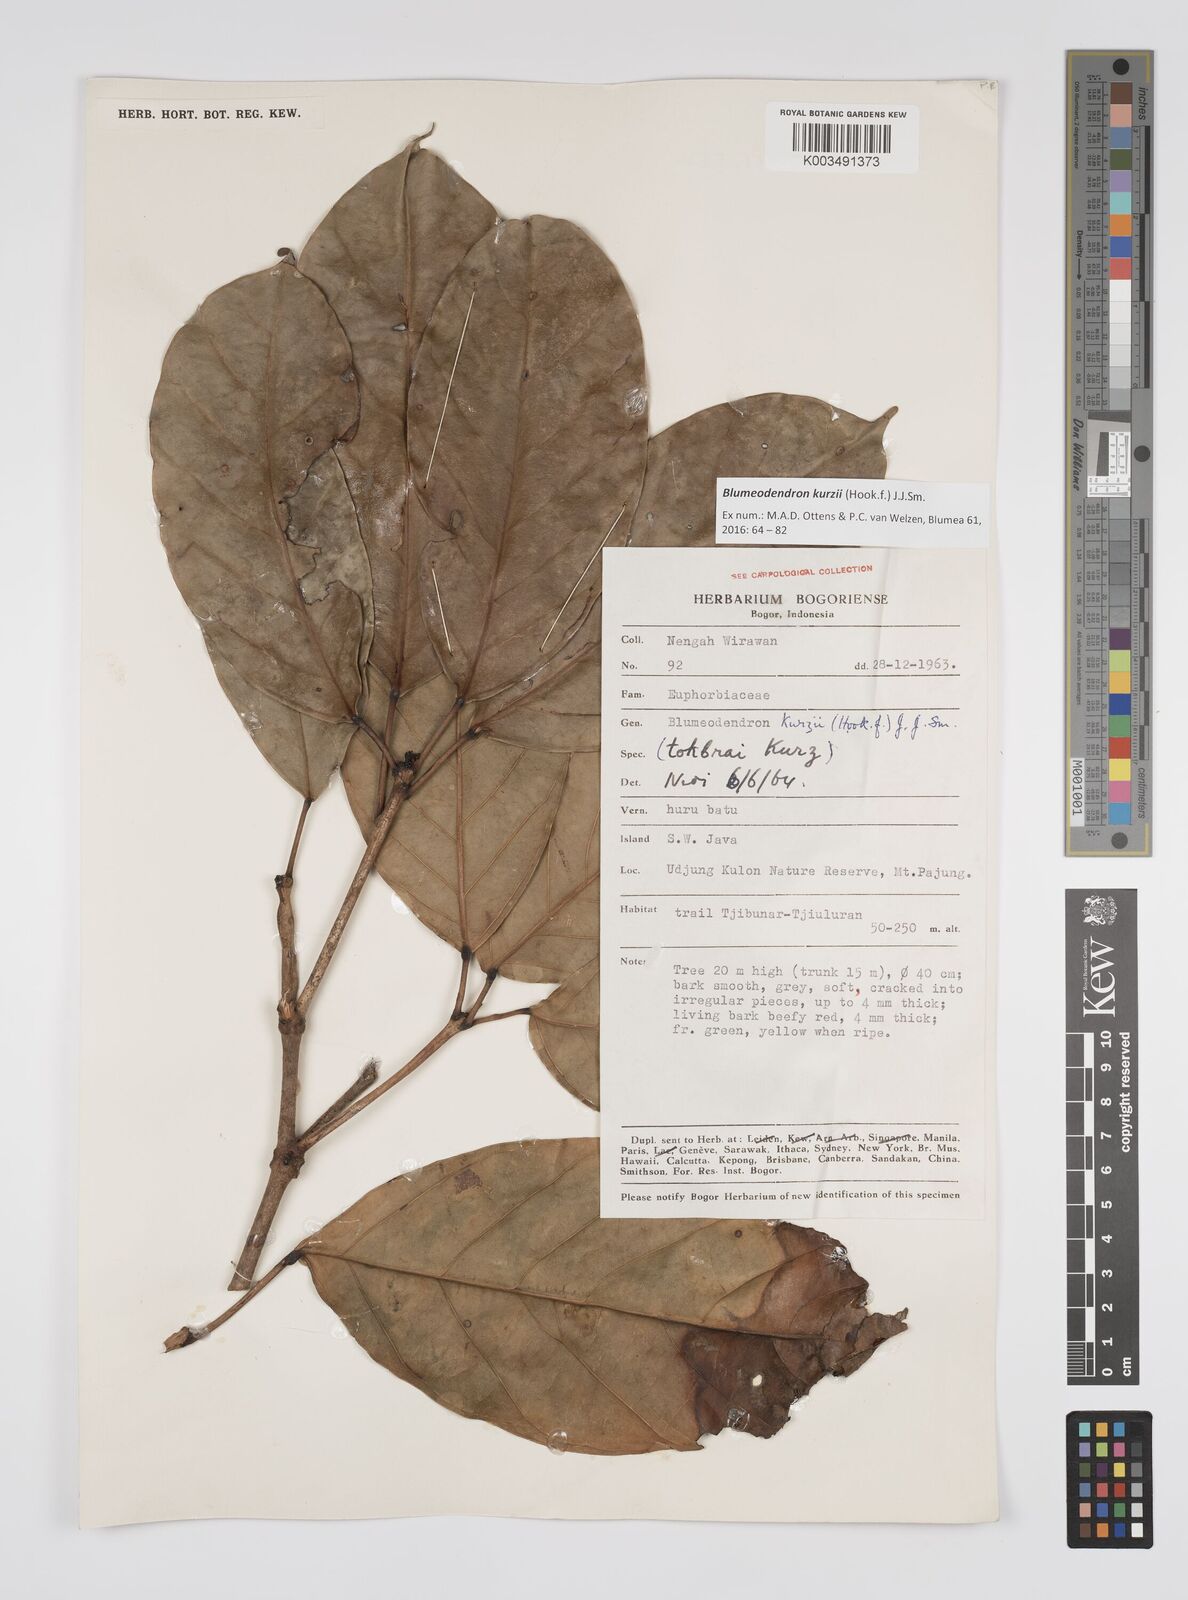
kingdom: Plantae
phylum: Tracheophyta
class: Magnoliopsida
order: Malpighiales
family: Euphorbiaceae
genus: Blumeodendron
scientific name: Blumeodendron kurzii
